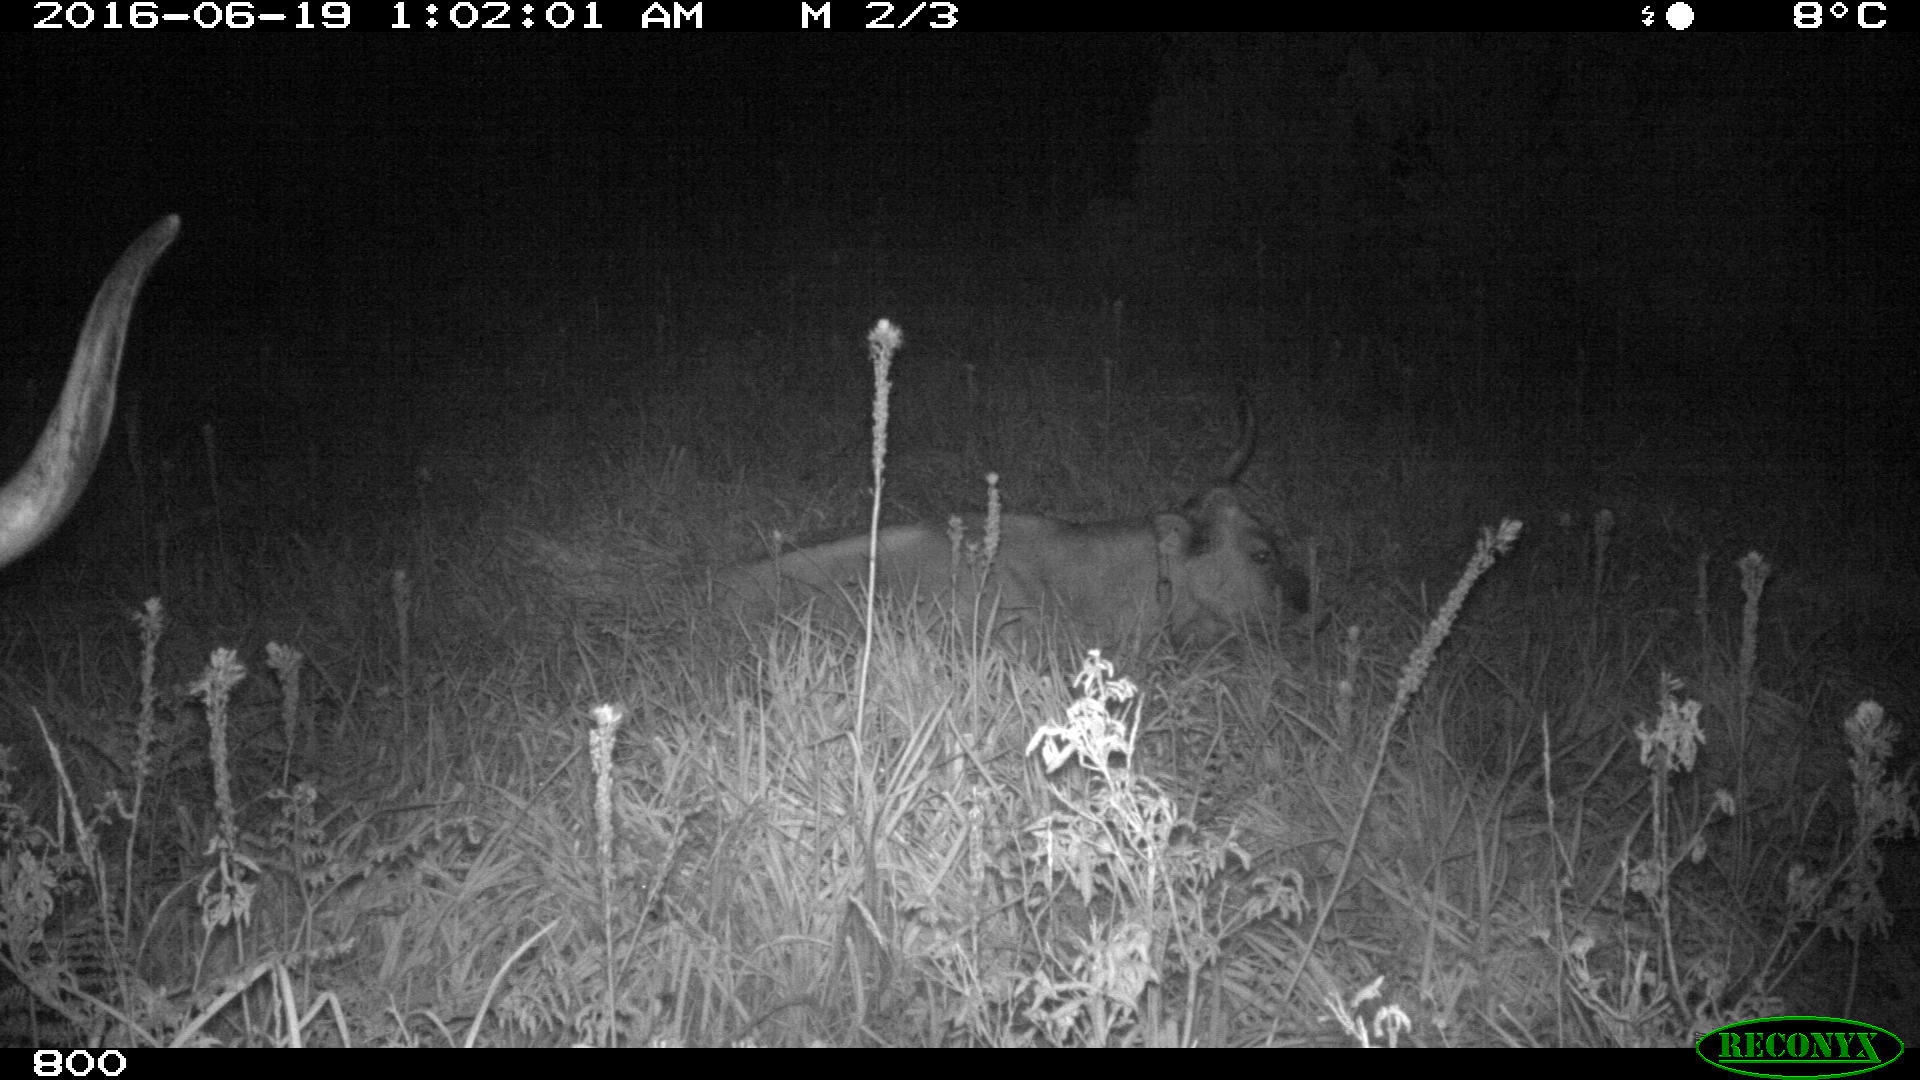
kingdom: Animalia
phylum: Chordata
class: Mammalia
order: Artiodactyla
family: Bovidae
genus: Bos
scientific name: Bos taurus
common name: Domesticated cattle
